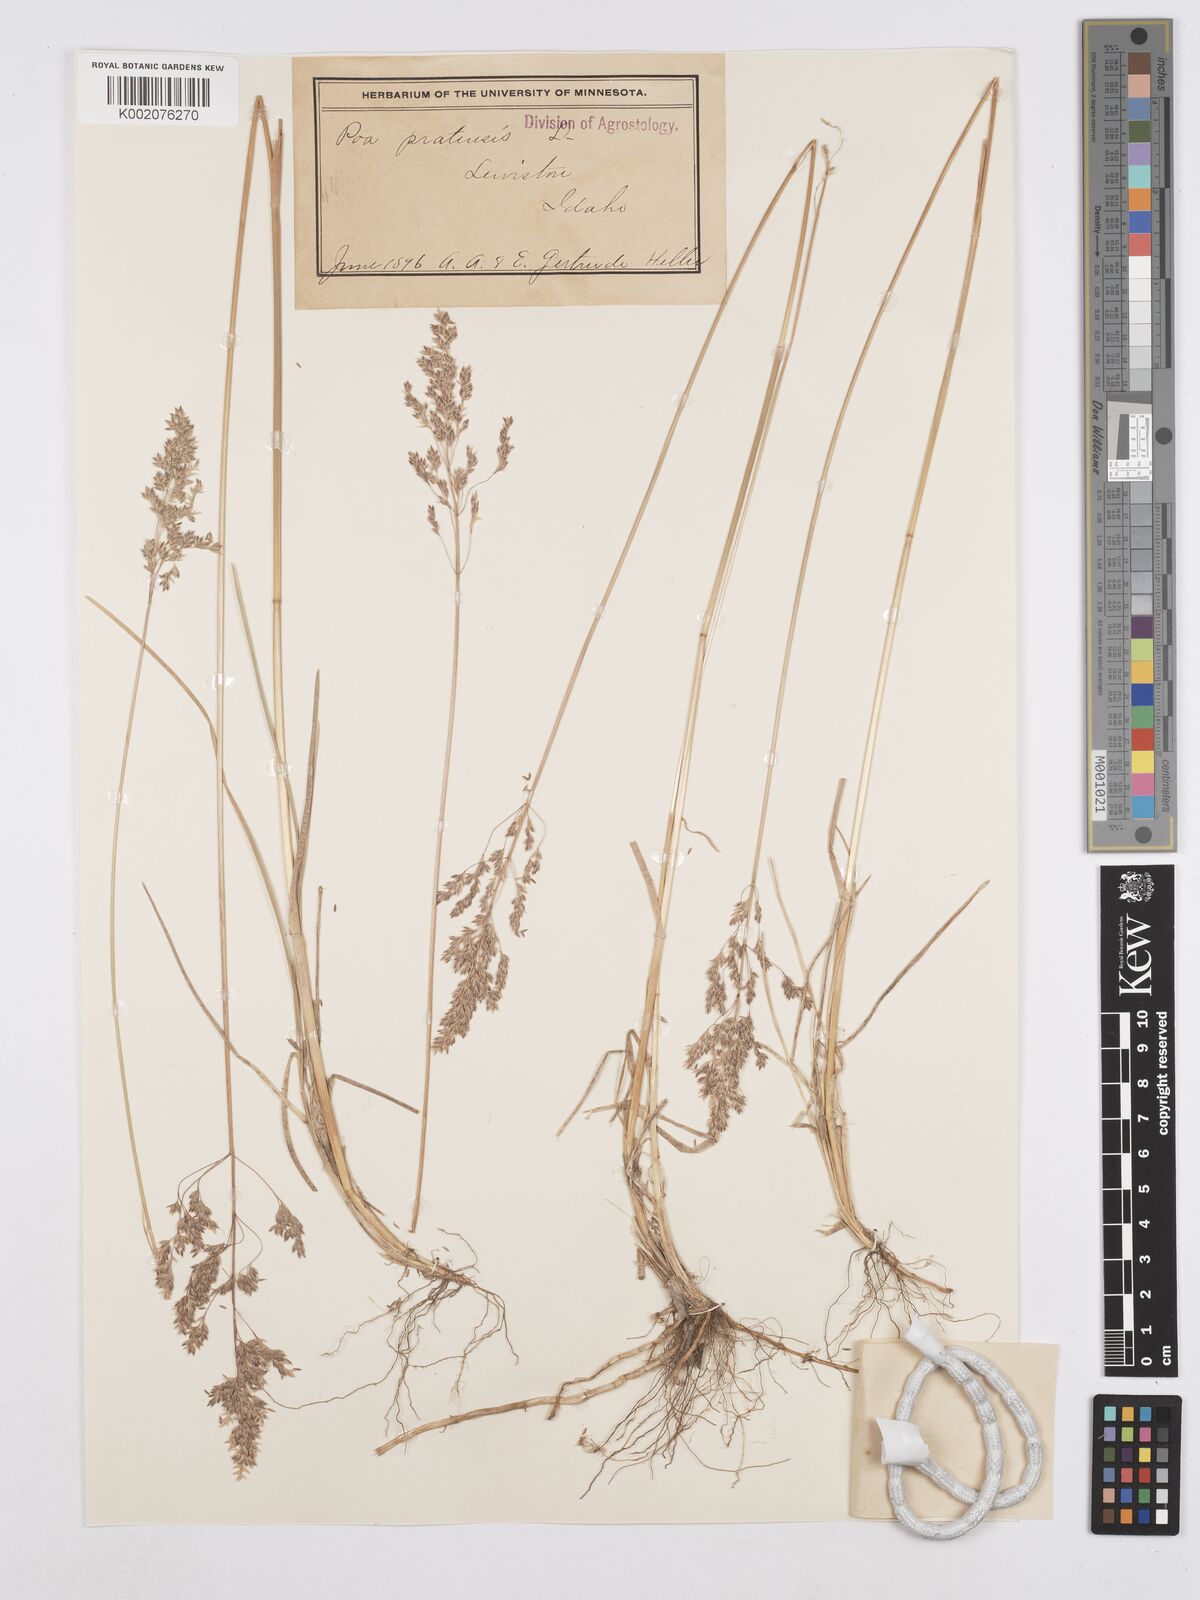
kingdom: Plantae
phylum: Tracheophyta
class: Liliopsida
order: Poales
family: Poaceae
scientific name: Poaceae
